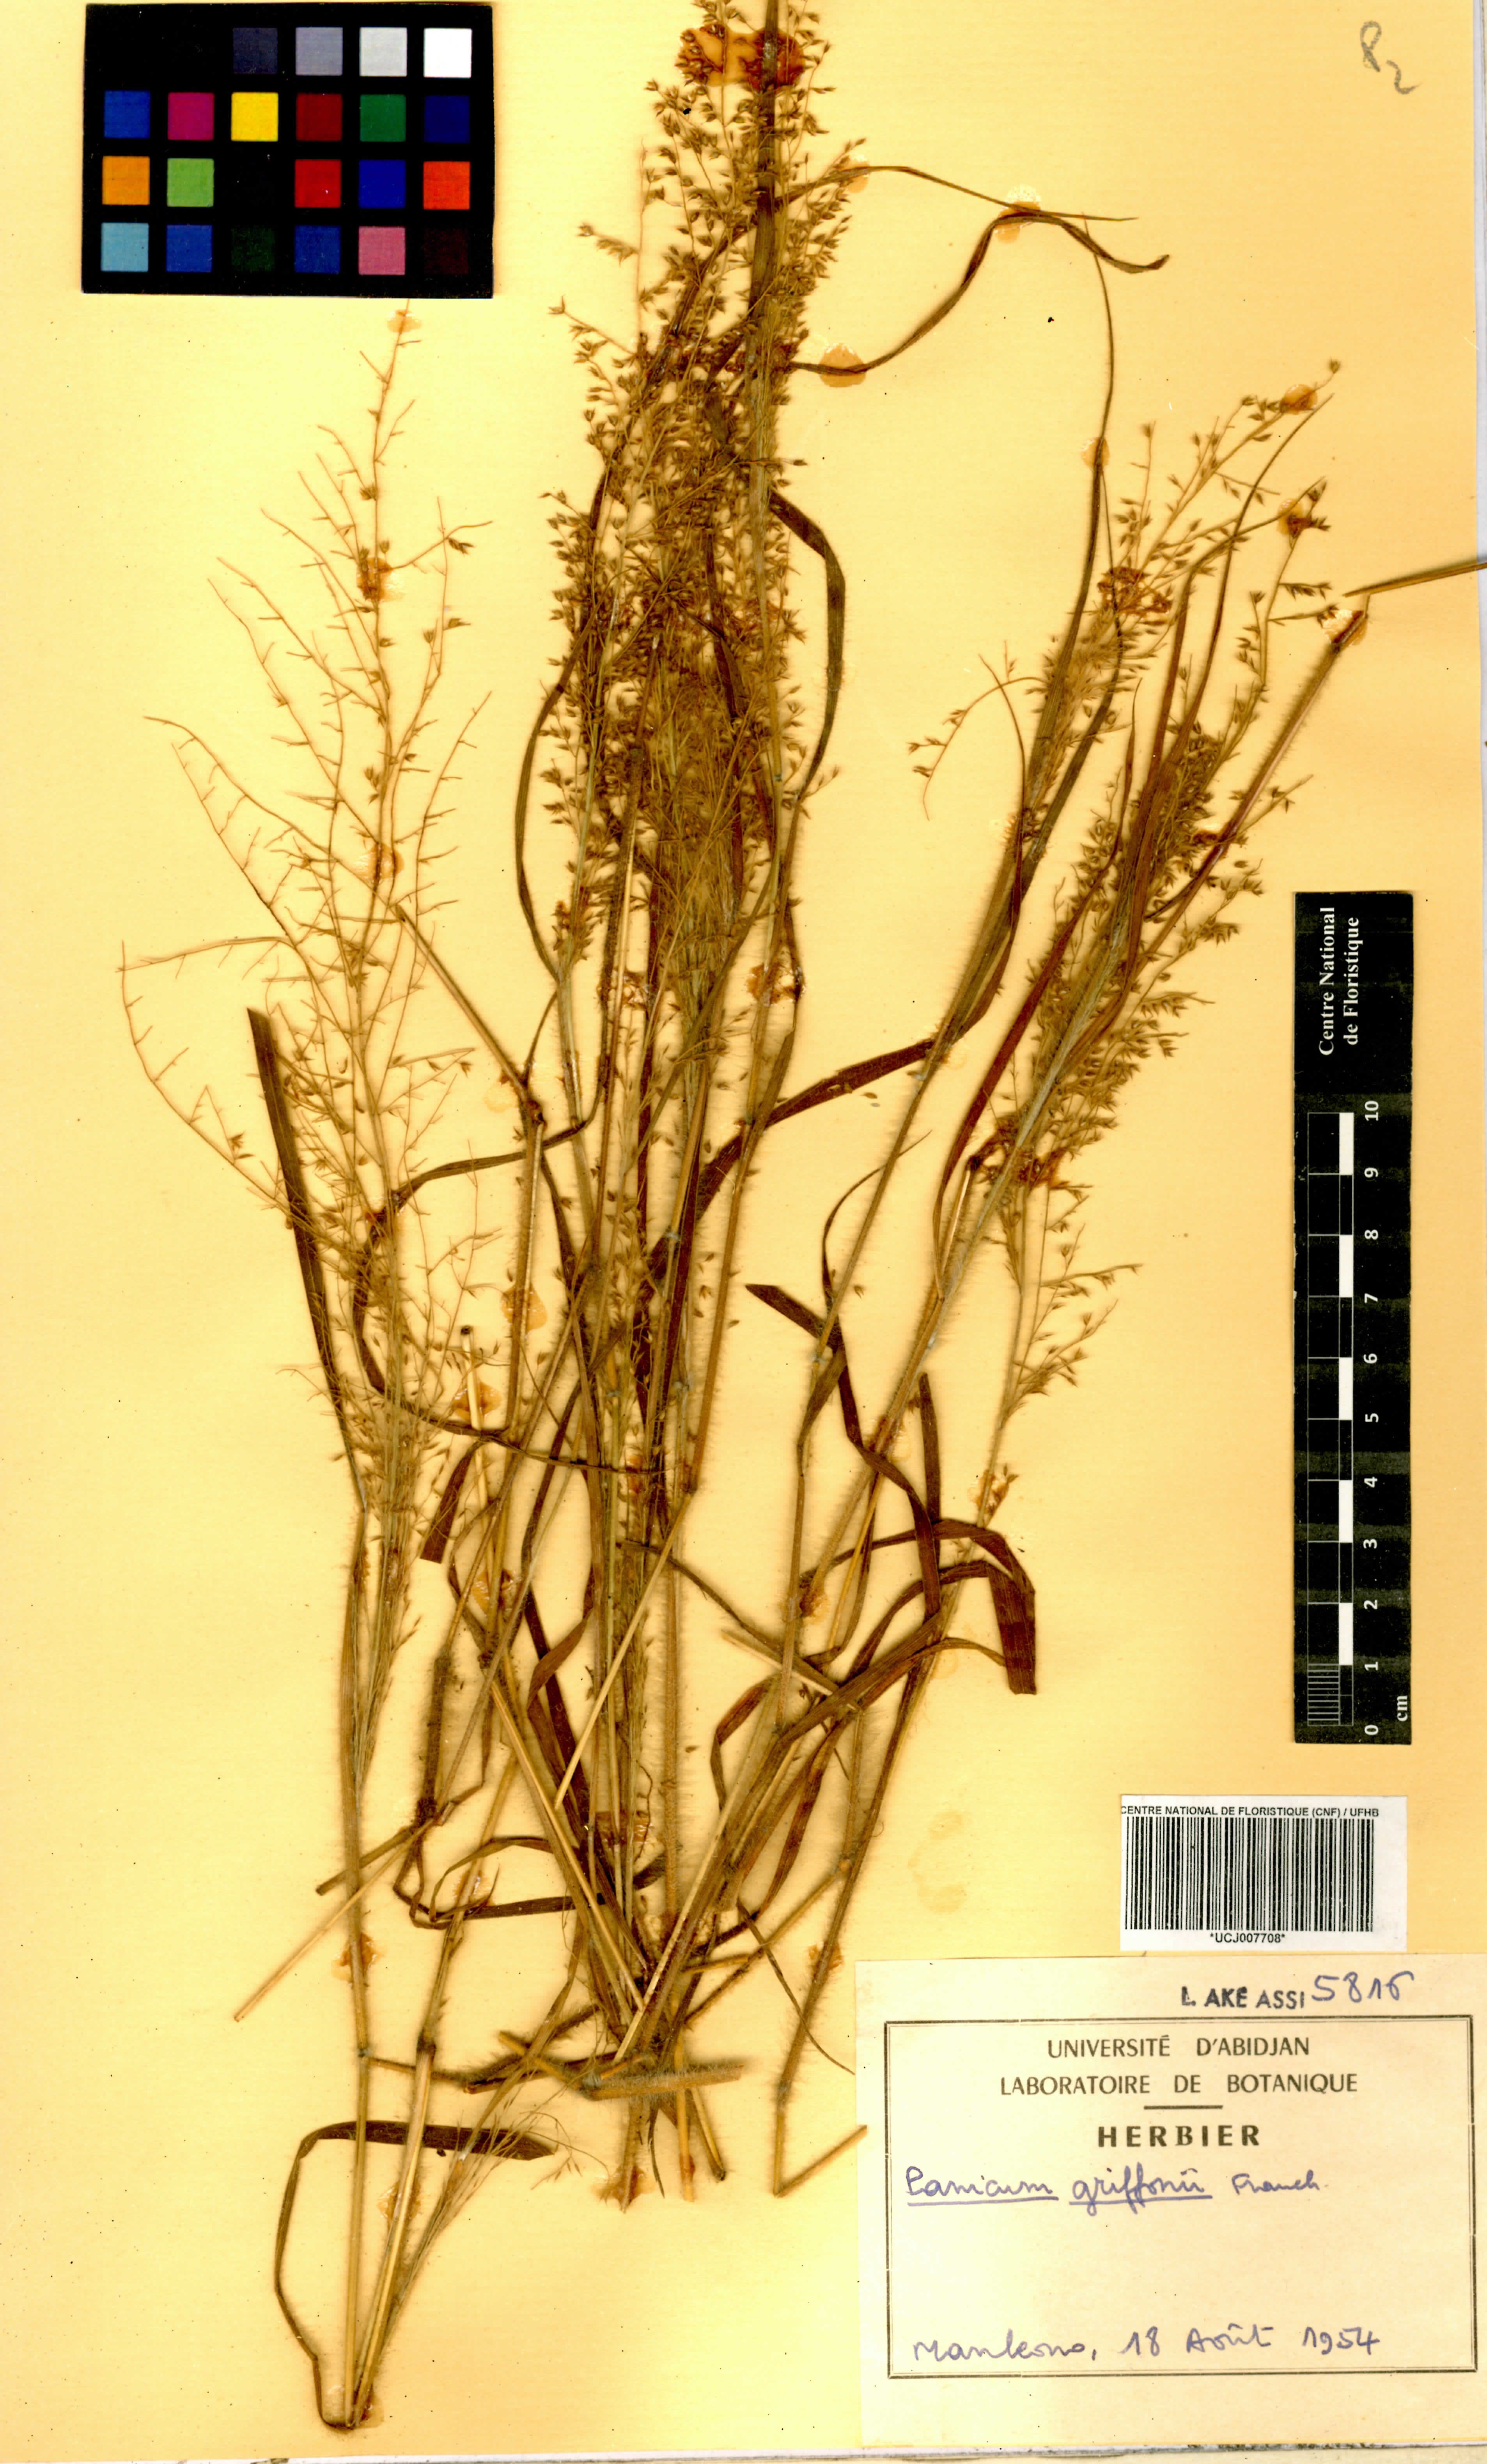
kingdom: Plantae
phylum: Tracheophyta
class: Liliopsida
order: Poales
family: Poaceae
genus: Panicum
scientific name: Panicum griffonii
